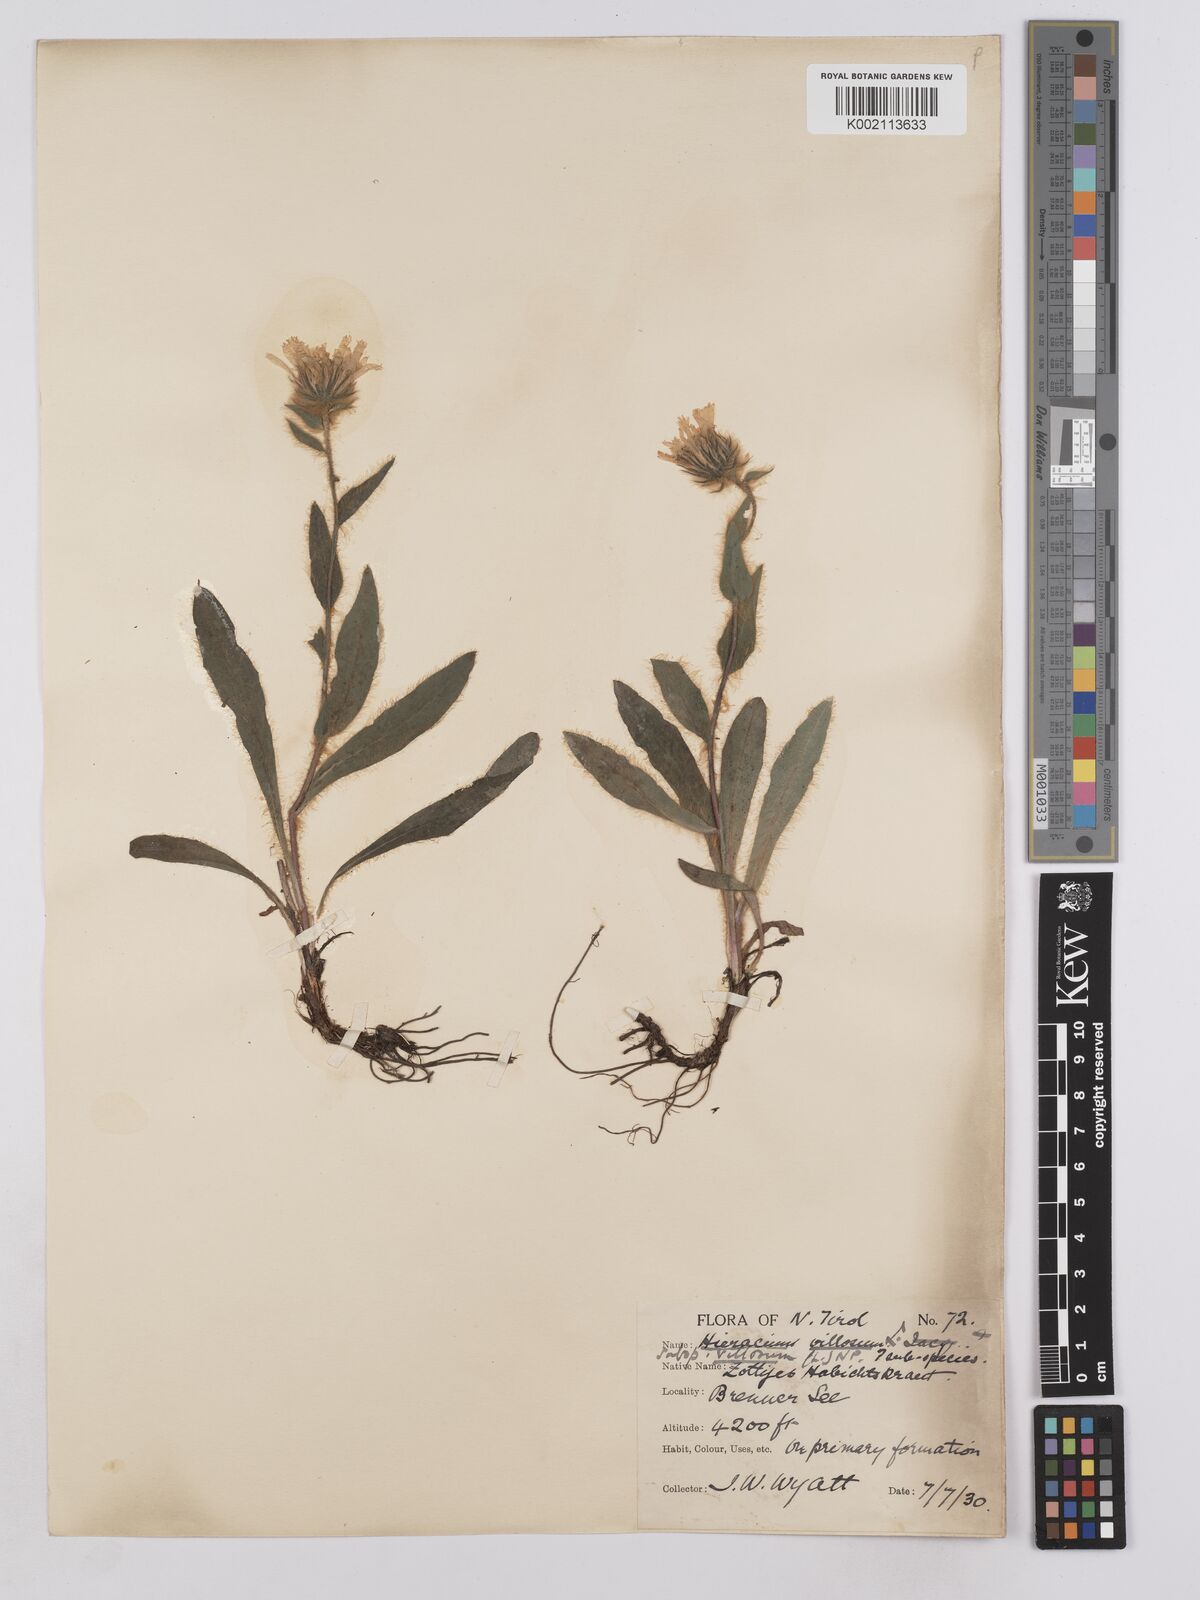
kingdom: Plantae
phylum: Tracheophyta
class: Magnoliopsida
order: Asterales
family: Asteraceae
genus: Hieracium
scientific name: Hieracium villosum
